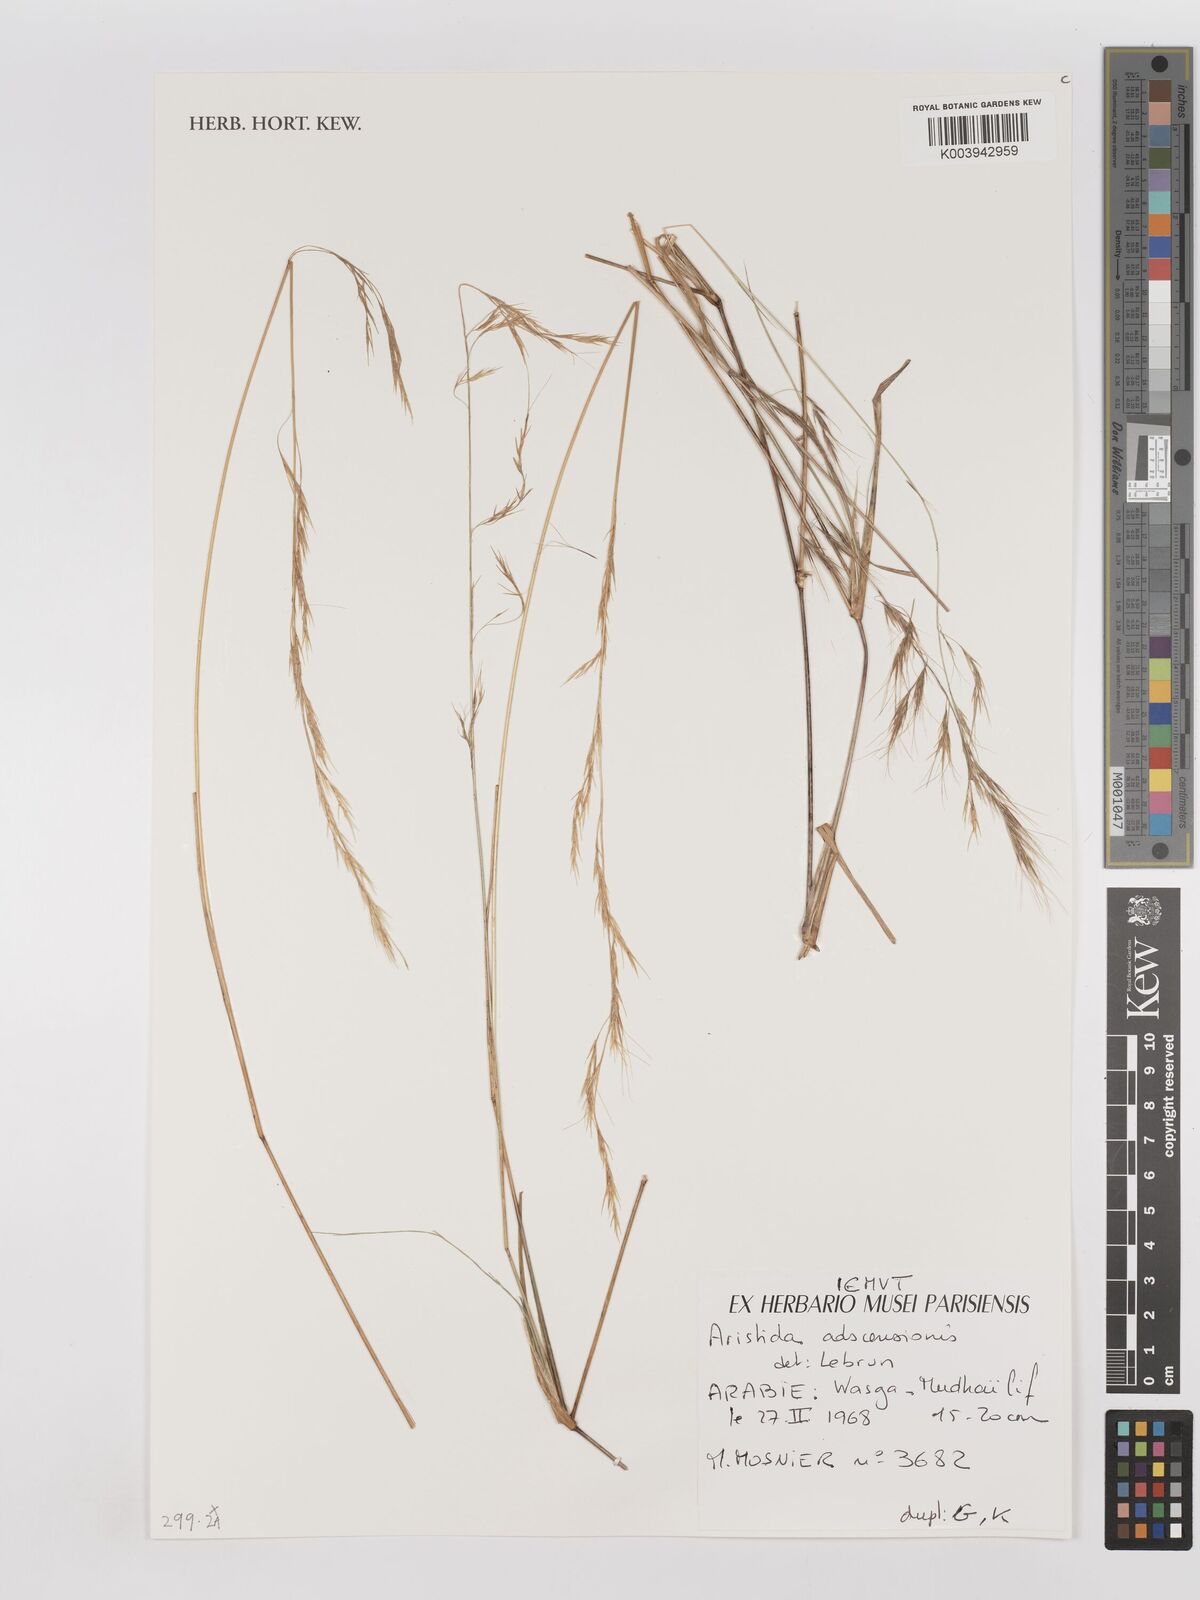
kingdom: Plantae
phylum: Tracheophyta
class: Liliopsida
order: Poales
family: Poaceae
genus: Aristida
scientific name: Aristida adscensionis
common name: Sixweeks threeawn
